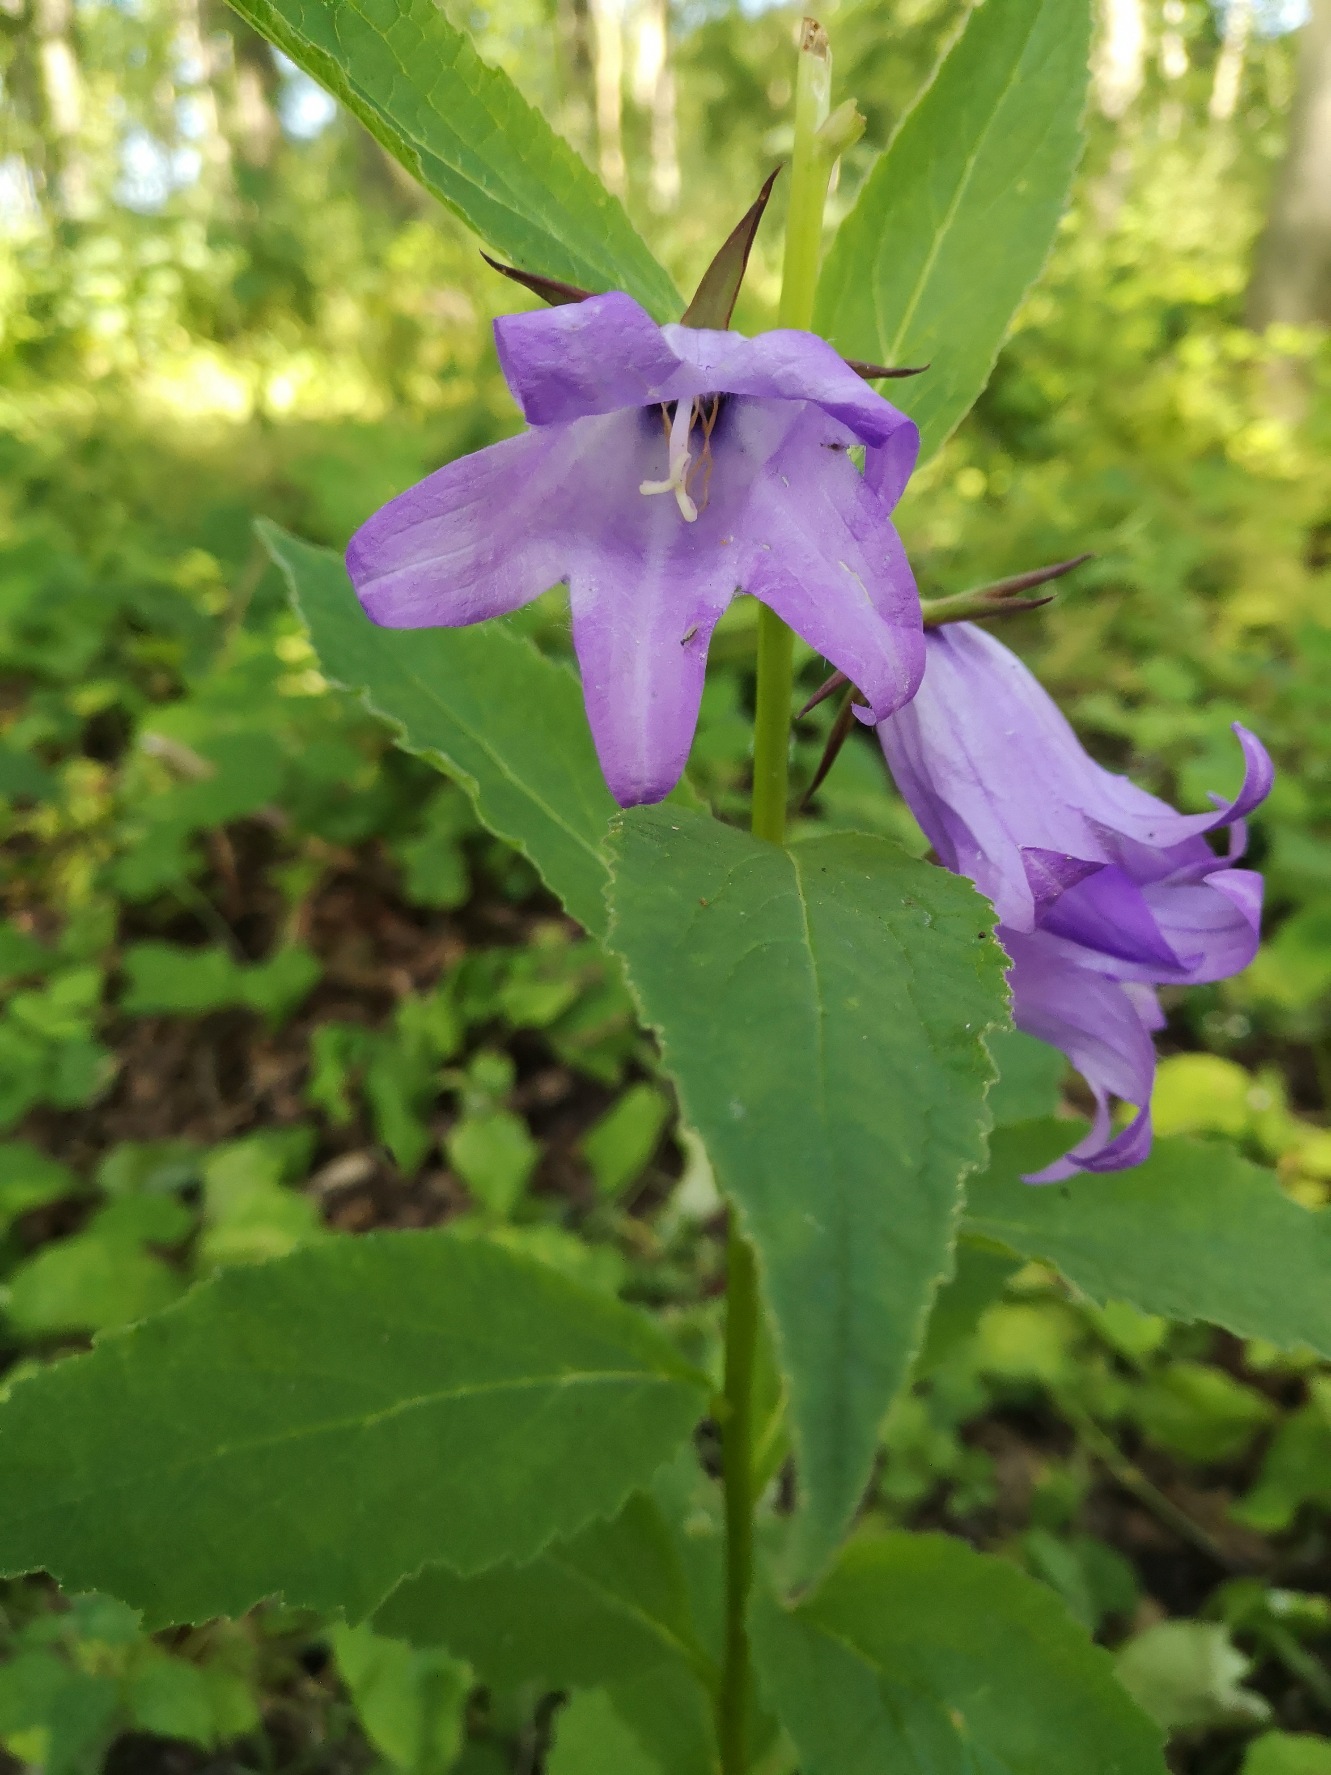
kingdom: Plantae
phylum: Tracheophyta
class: Magnoliopsida
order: Asterales
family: Campanulaceae
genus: Campanula
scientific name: Campanula latifolia
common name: Bredbladet klokke
